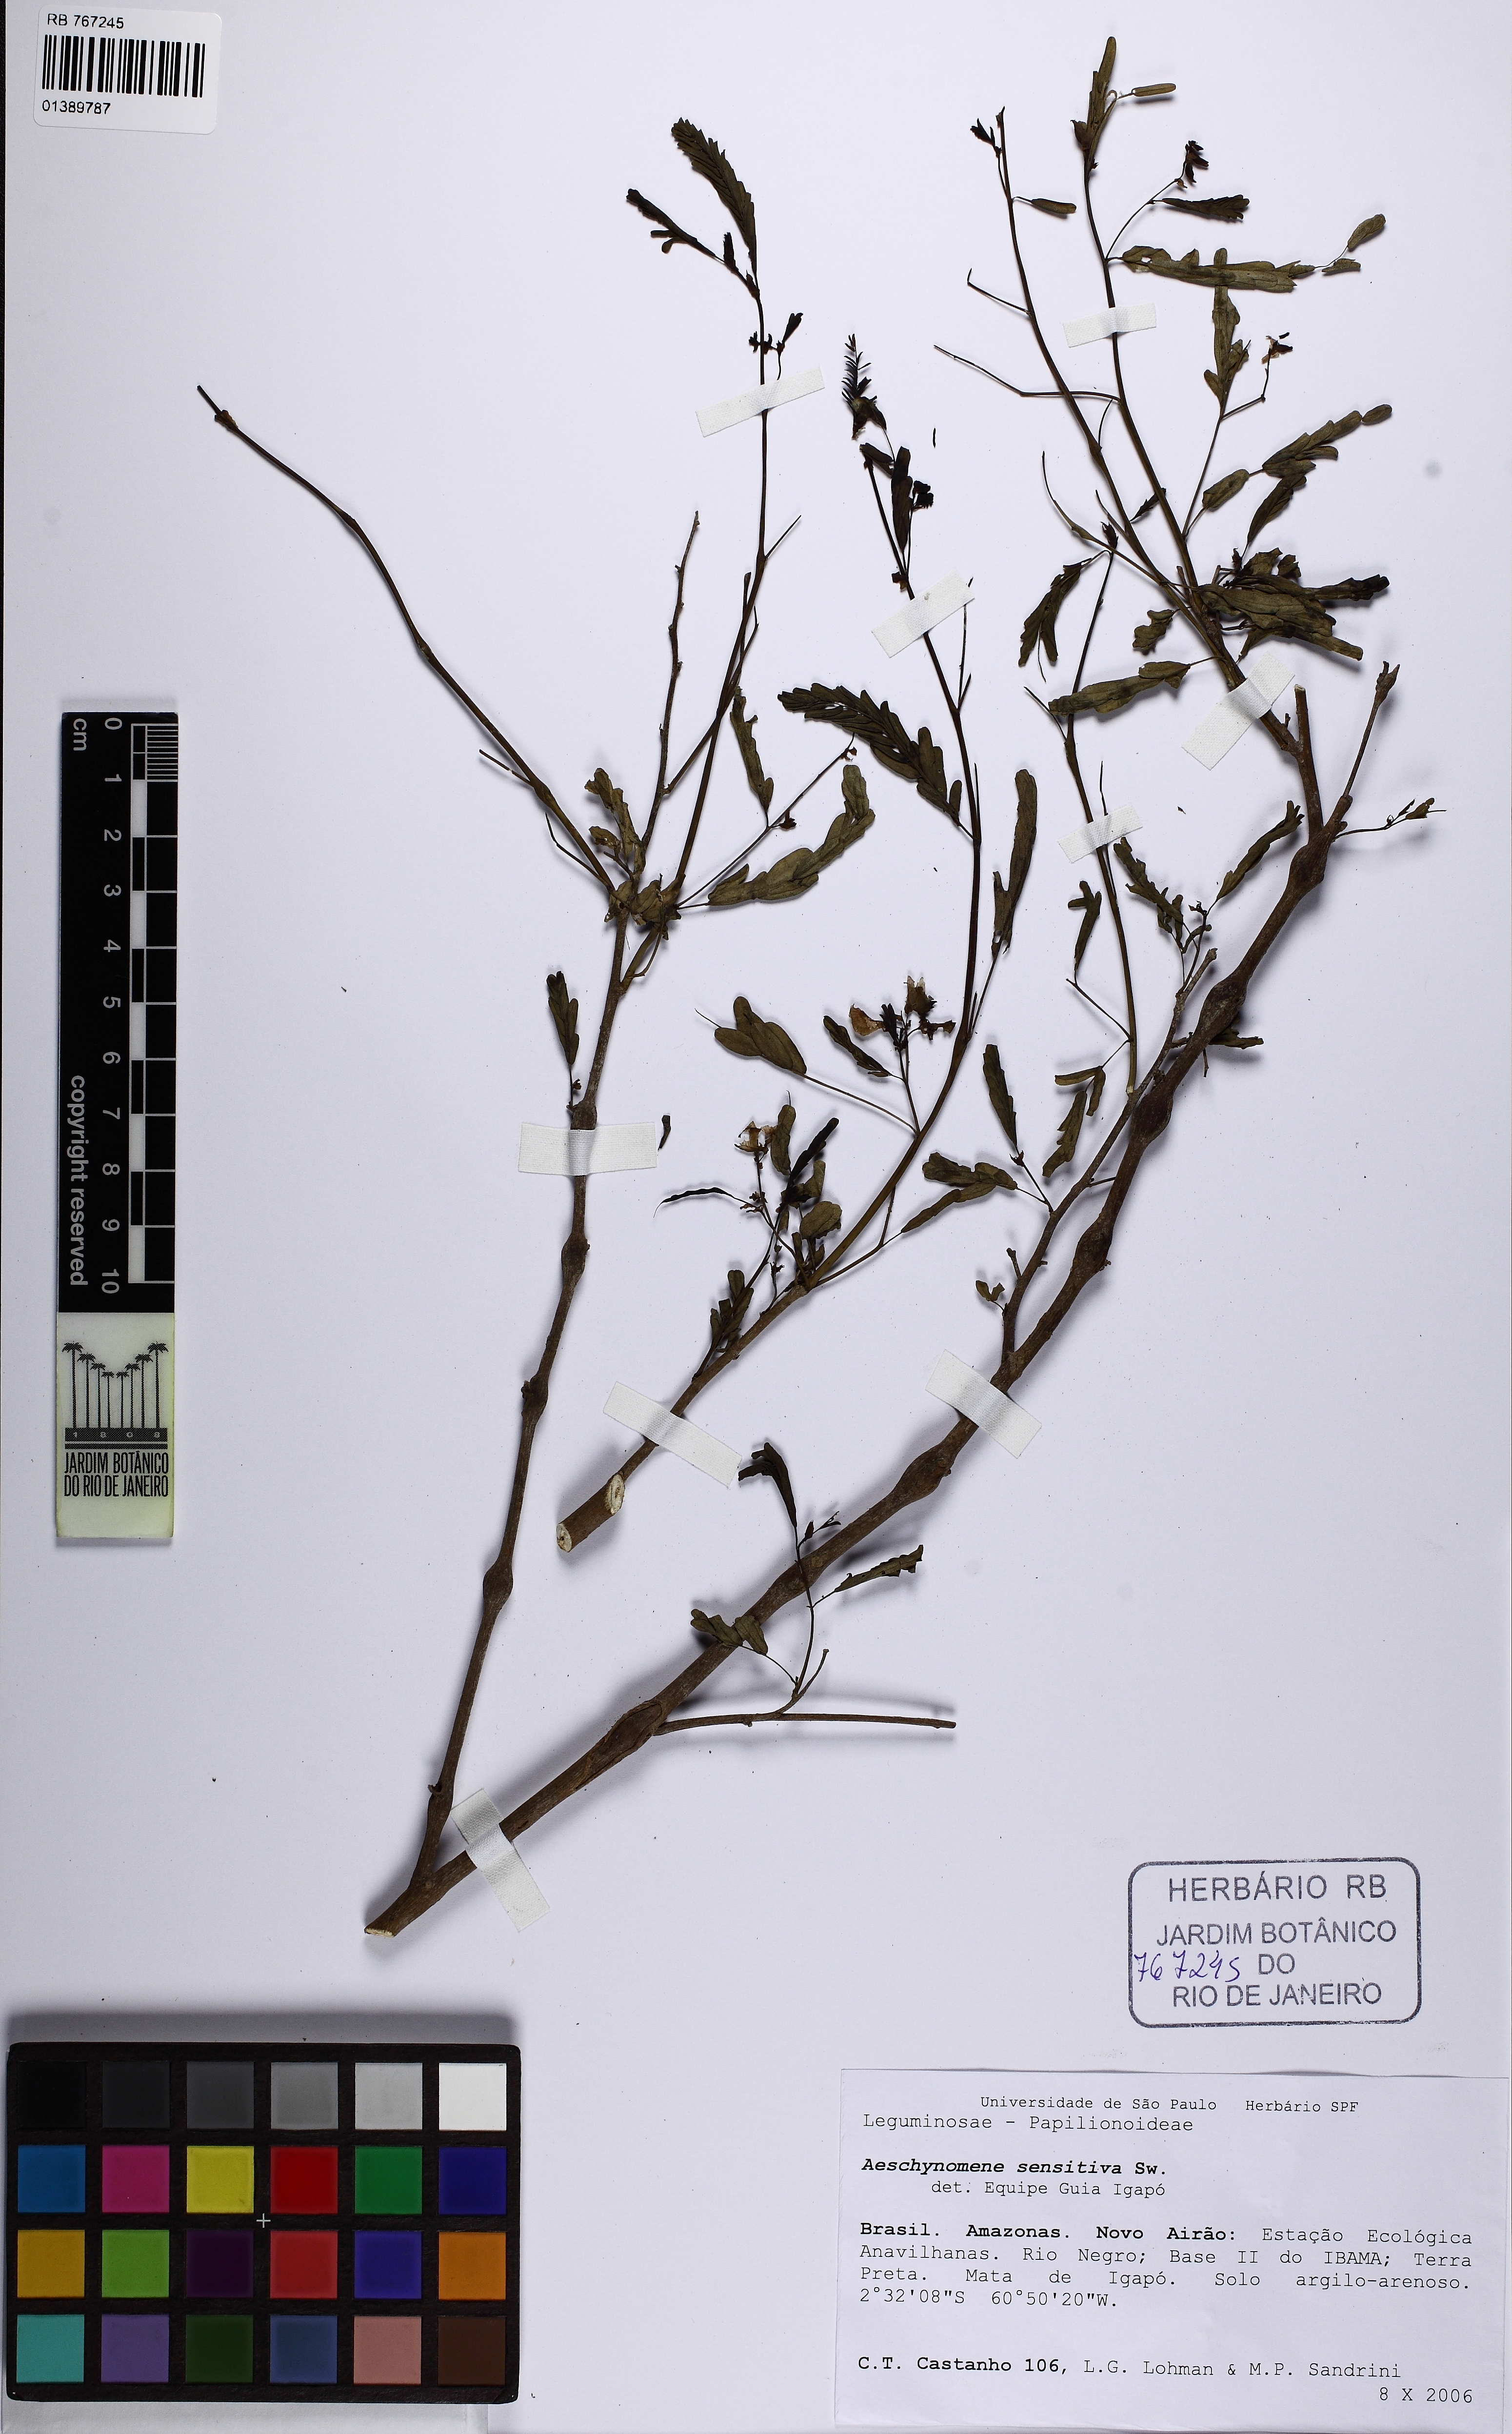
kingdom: Plantae
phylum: Tracheophyta
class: Magnoliopsida
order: Fabales
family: Fabaceae
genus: Aeschynomene
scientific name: Aeschynomene sensitiva
